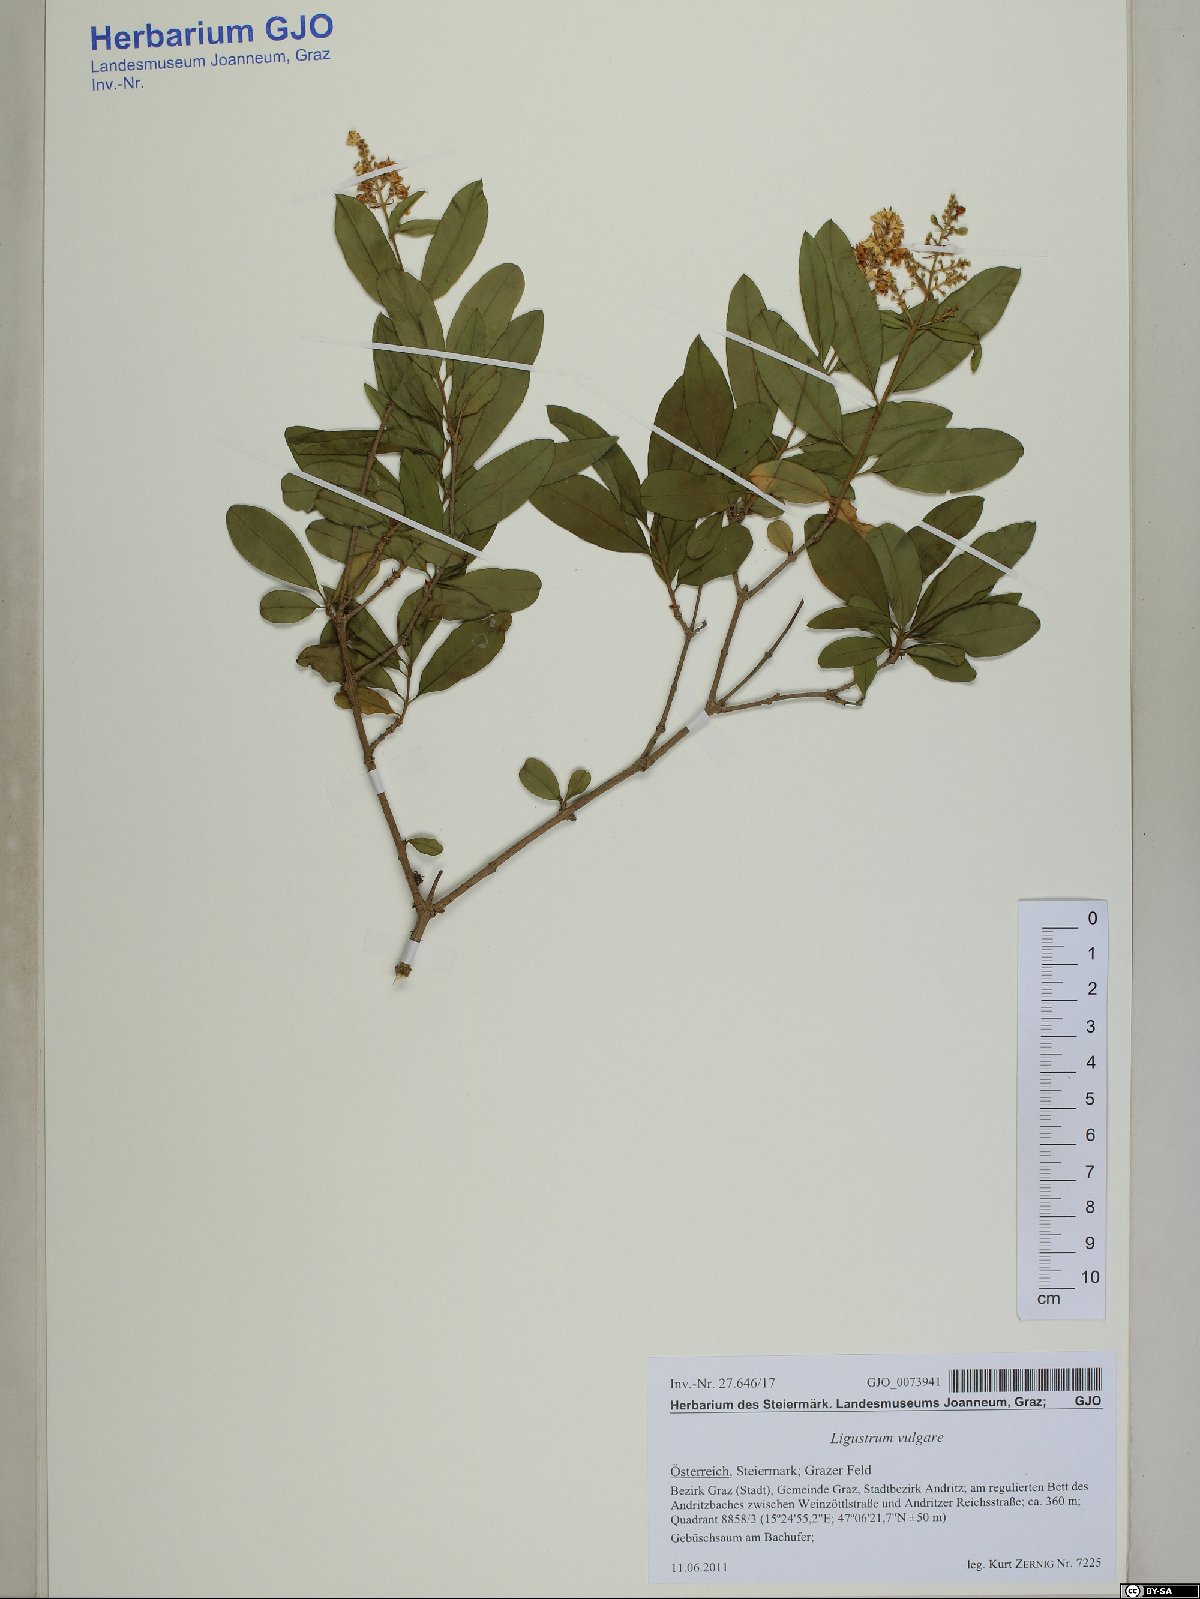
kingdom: Plantae
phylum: Tracheophyta
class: Magnoliopsida
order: Lamiales
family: Oleaceae
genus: Ligustrum
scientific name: Ligustrum vulgare
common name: Wild privet
